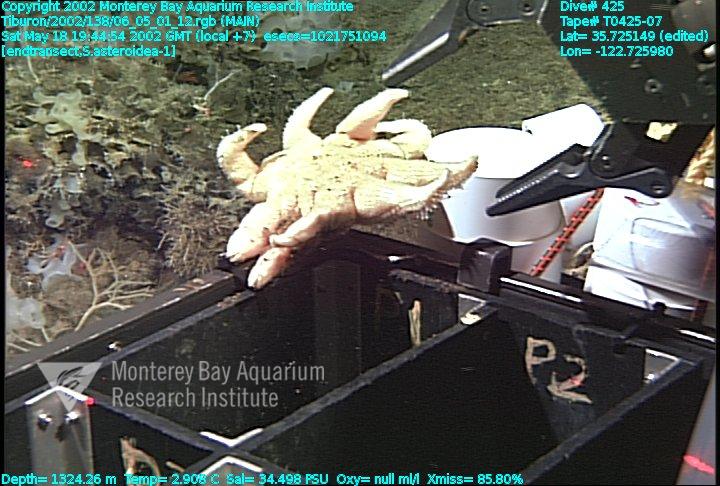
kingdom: Animalia
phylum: Porifera
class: Hexactinellida
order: Sceptrulophora
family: Farreidae
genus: Farrea
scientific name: Farrea occa
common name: Reversed glass sponge
